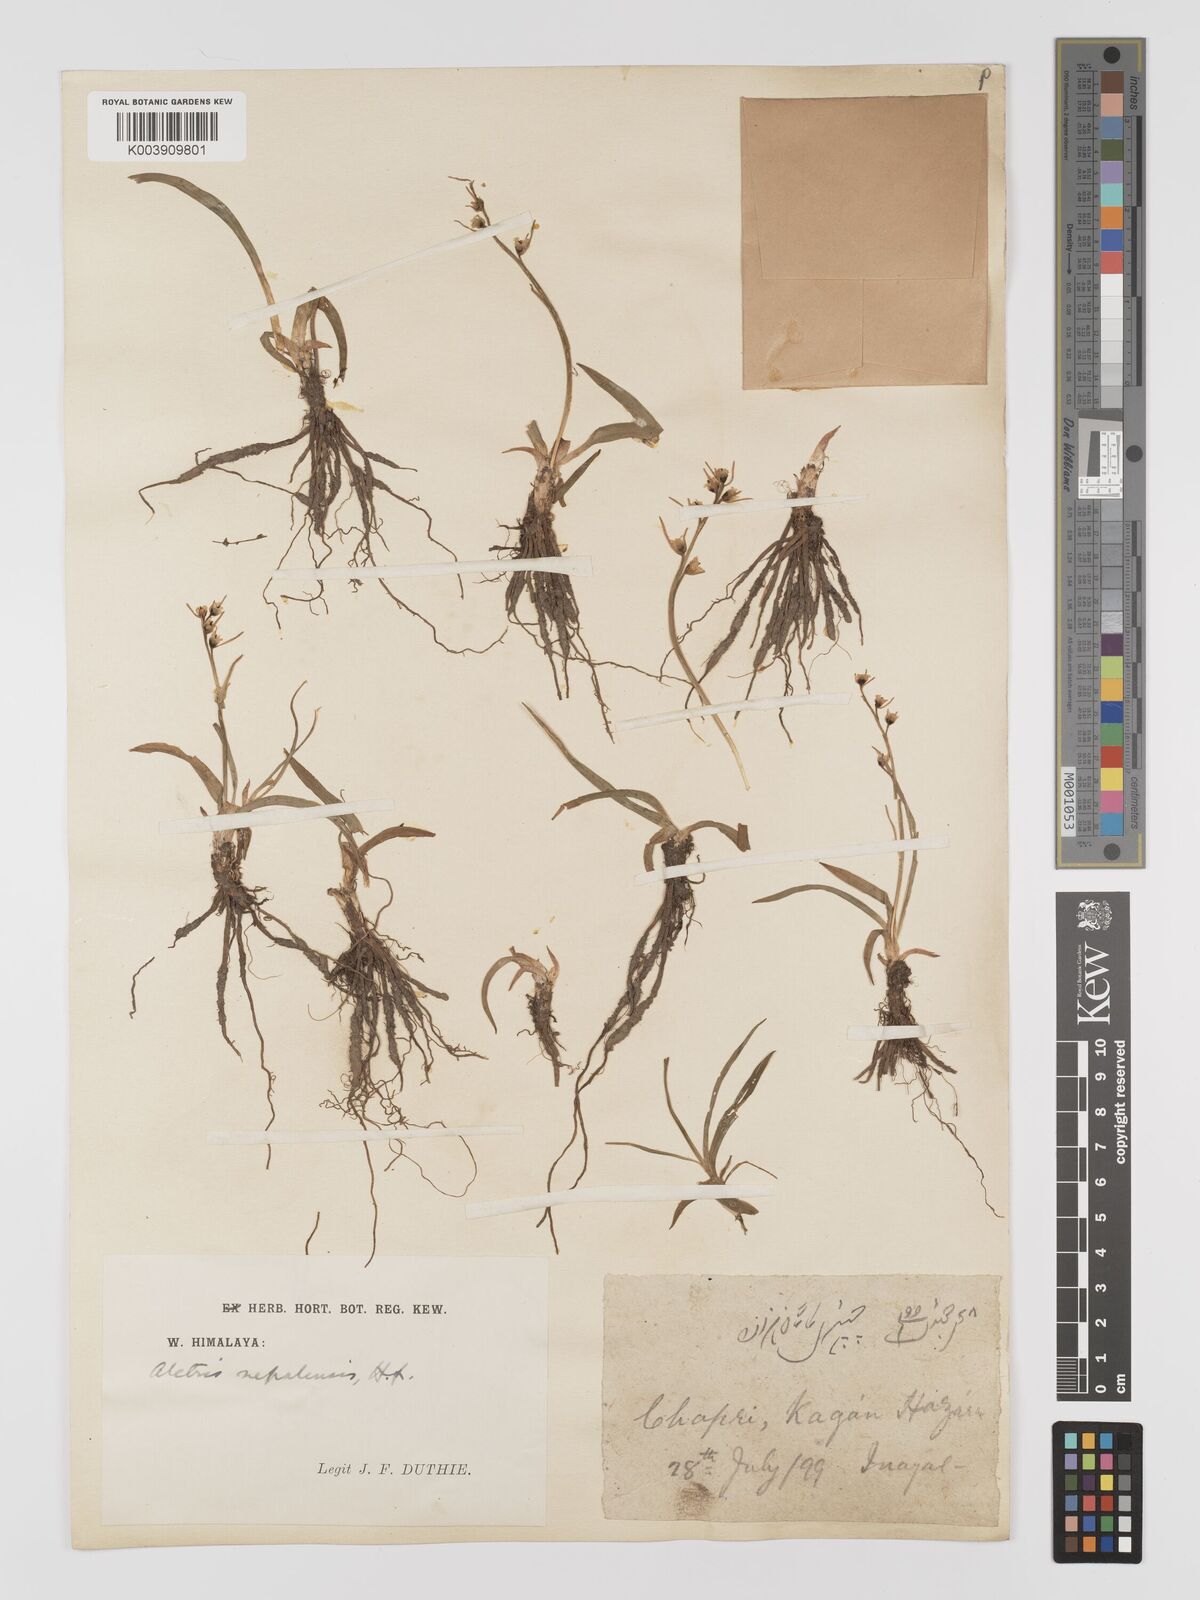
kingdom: Plantae
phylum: Tracheophyta
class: Liliopsida
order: Dioscoreales
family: Nartheciaceae
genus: Aletris
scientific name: Aletris pauciflora
